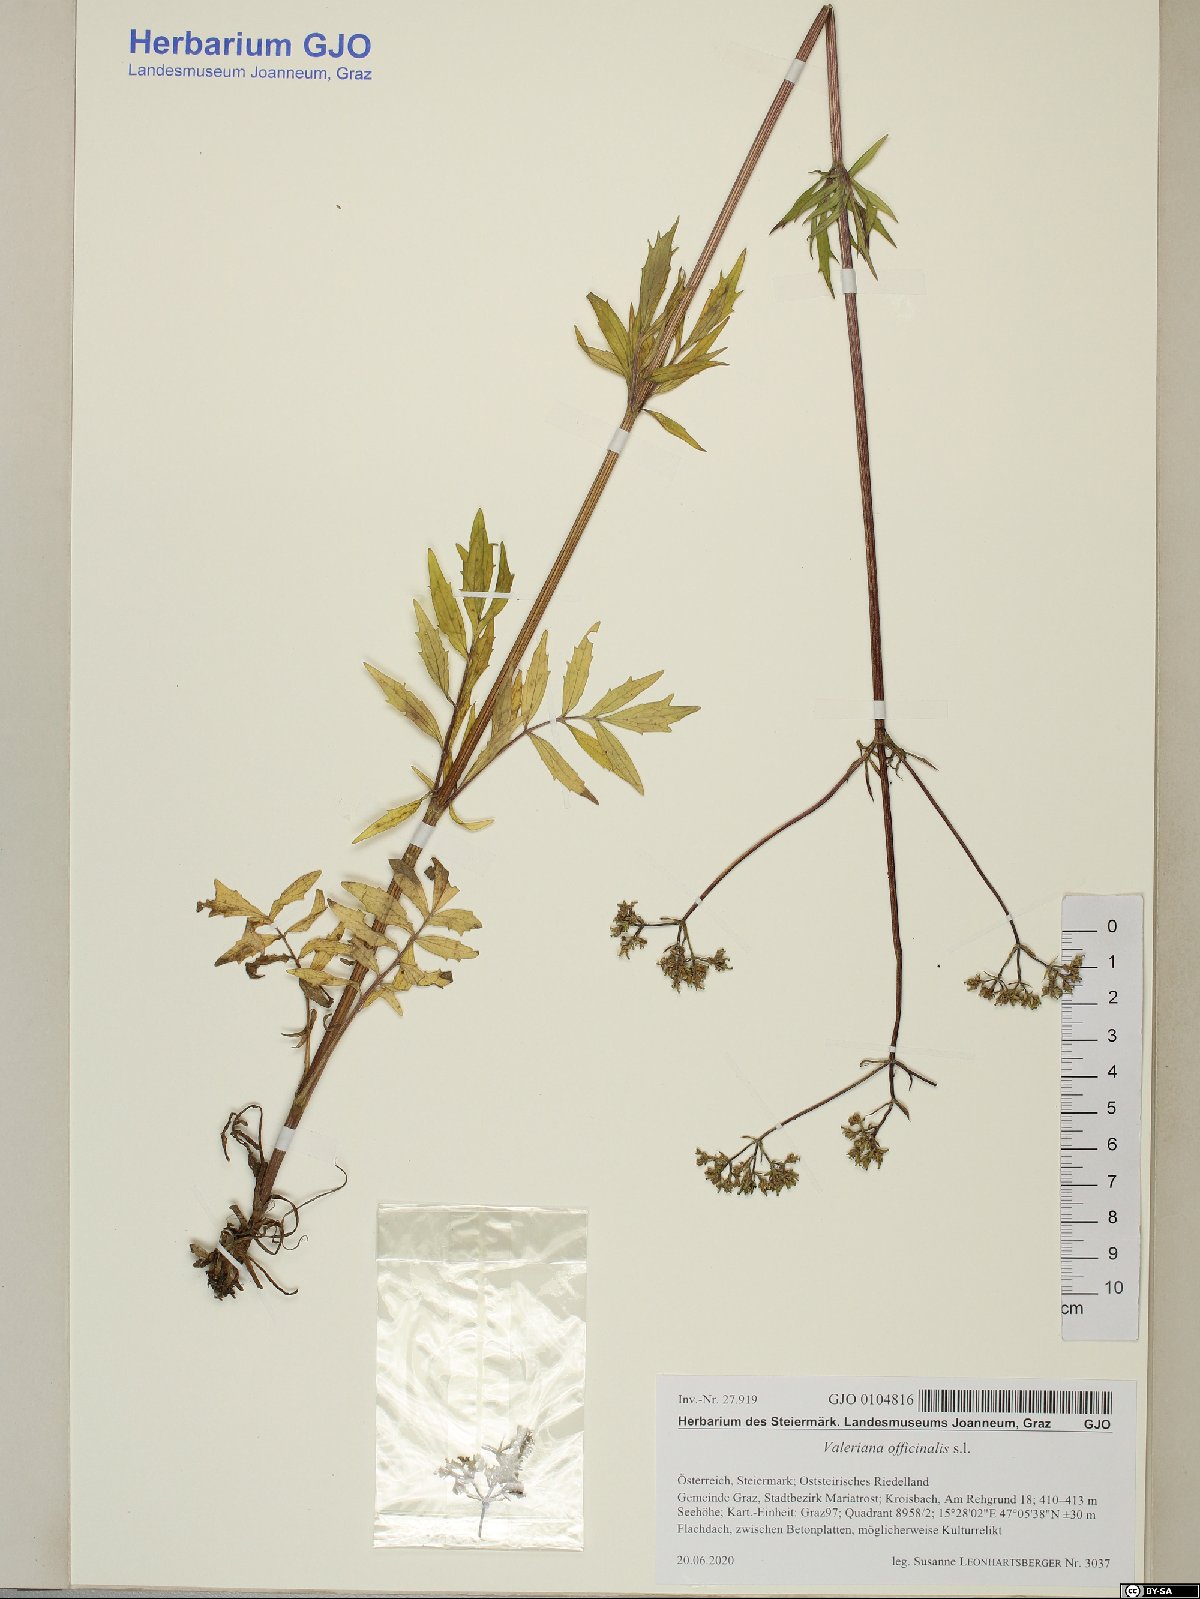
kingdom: Plantae
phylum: Tracheophyta
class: Magnoliopsida
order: Dipsacales
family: Caprifoliaceae
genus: Valeriana
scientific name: Valeriana officinalis
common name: Common valerian
